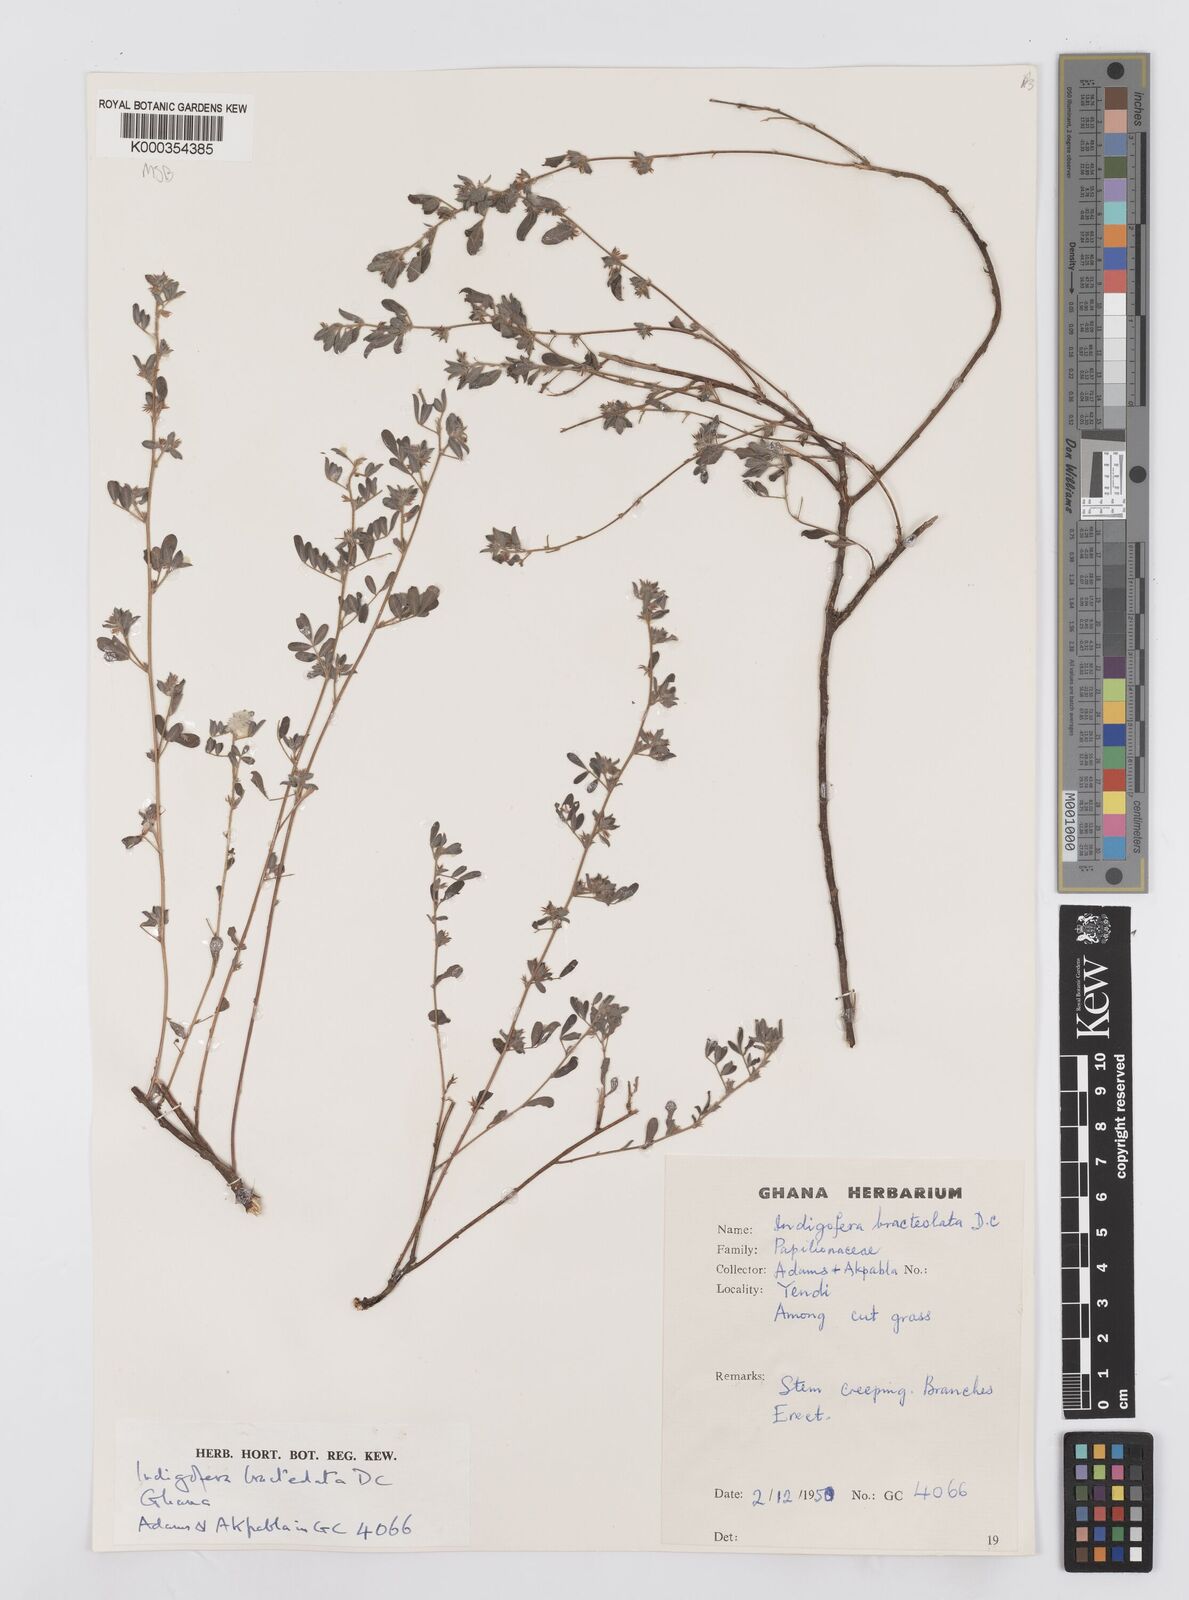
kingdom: Plantae
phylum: Tracheophyta
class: Magnoliopsida
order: Fabales
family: Fabaceae
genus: Indigofera
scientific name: Indigofera bracteolata
